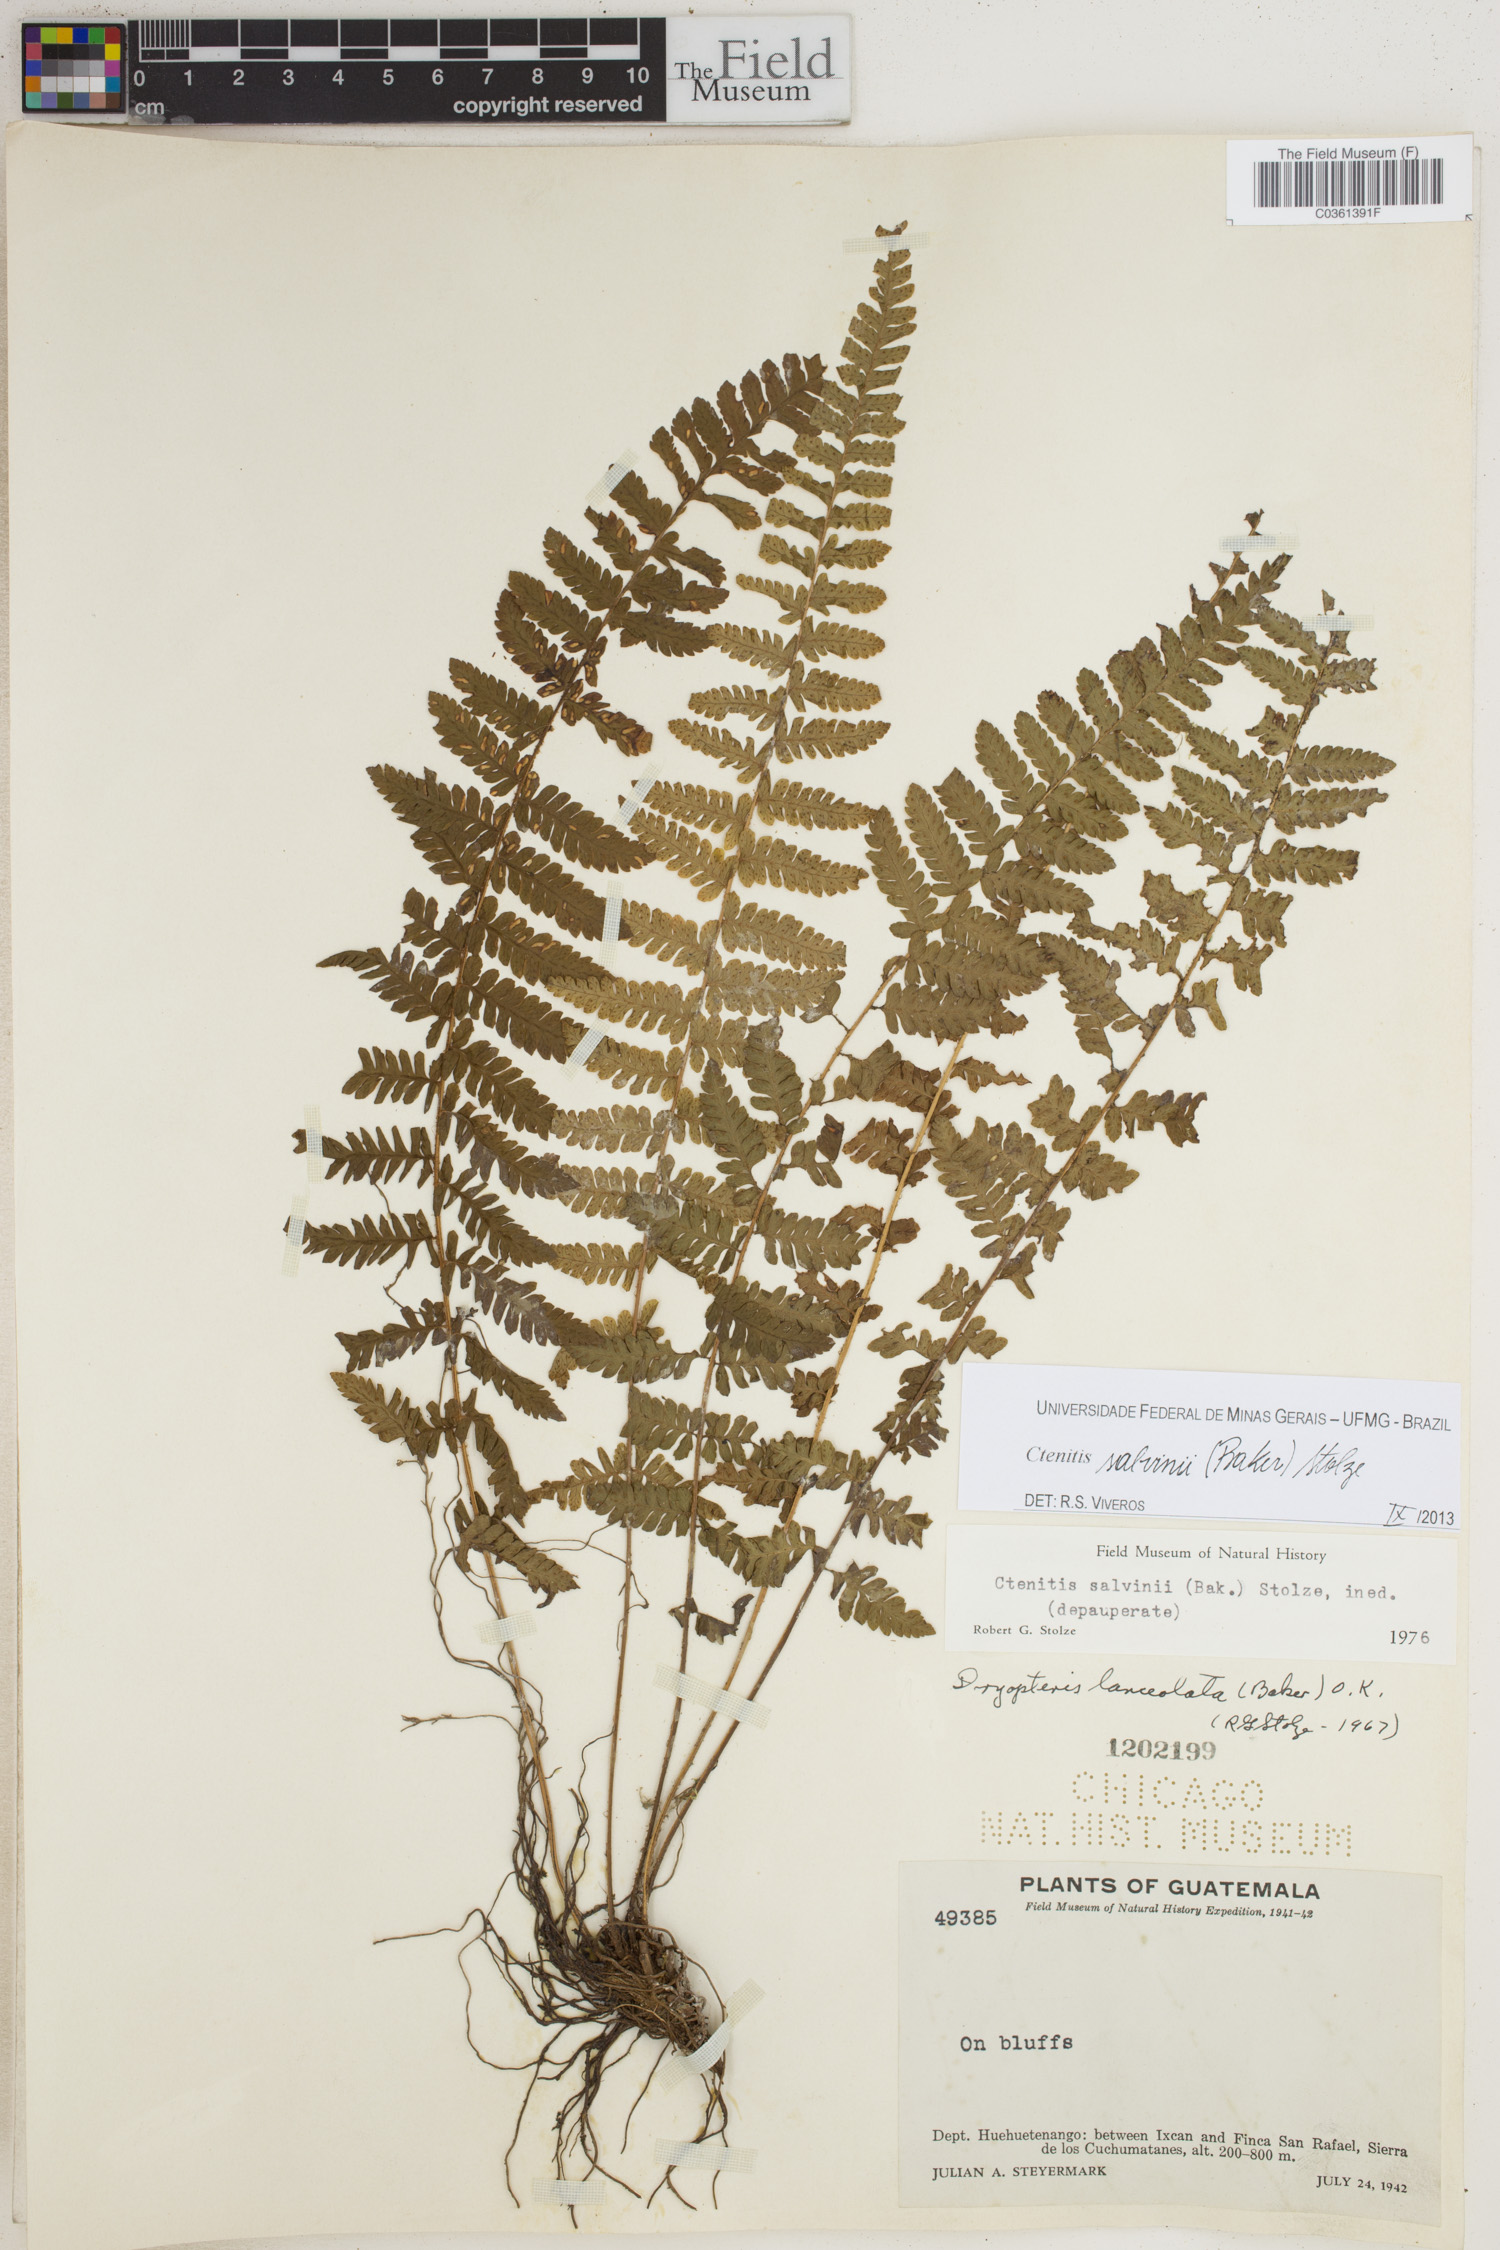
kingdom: Plantae
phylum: Tracheophyta
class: Polypodiopsida
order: Polypodiales
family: Dryopteridaceae
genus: Ctenitis
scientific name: Ctenitis salvinii
